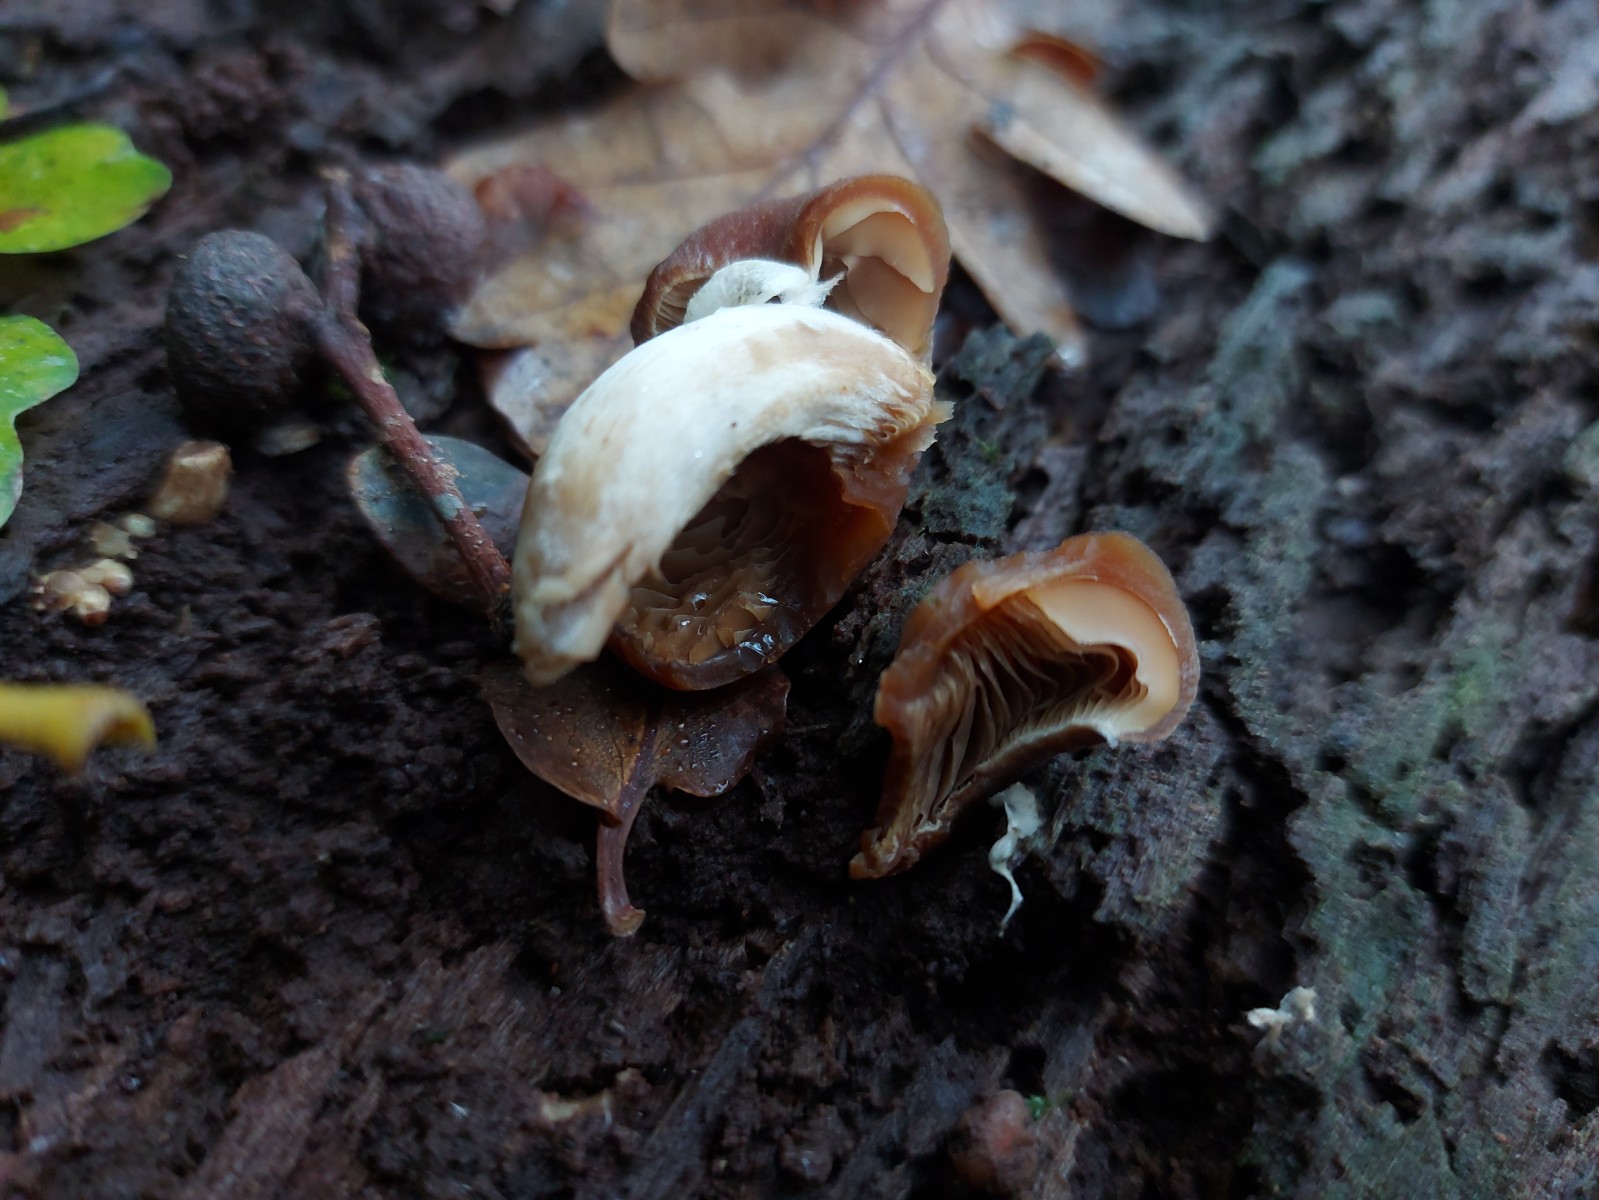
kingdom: Fungi
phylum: Basidiomycota
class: Agaricomycetes
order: Agaricales
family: Psathyrellaceae
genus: Psathyrella
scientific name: Psathyrella piluliformis
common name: lysstokket mørkhat
